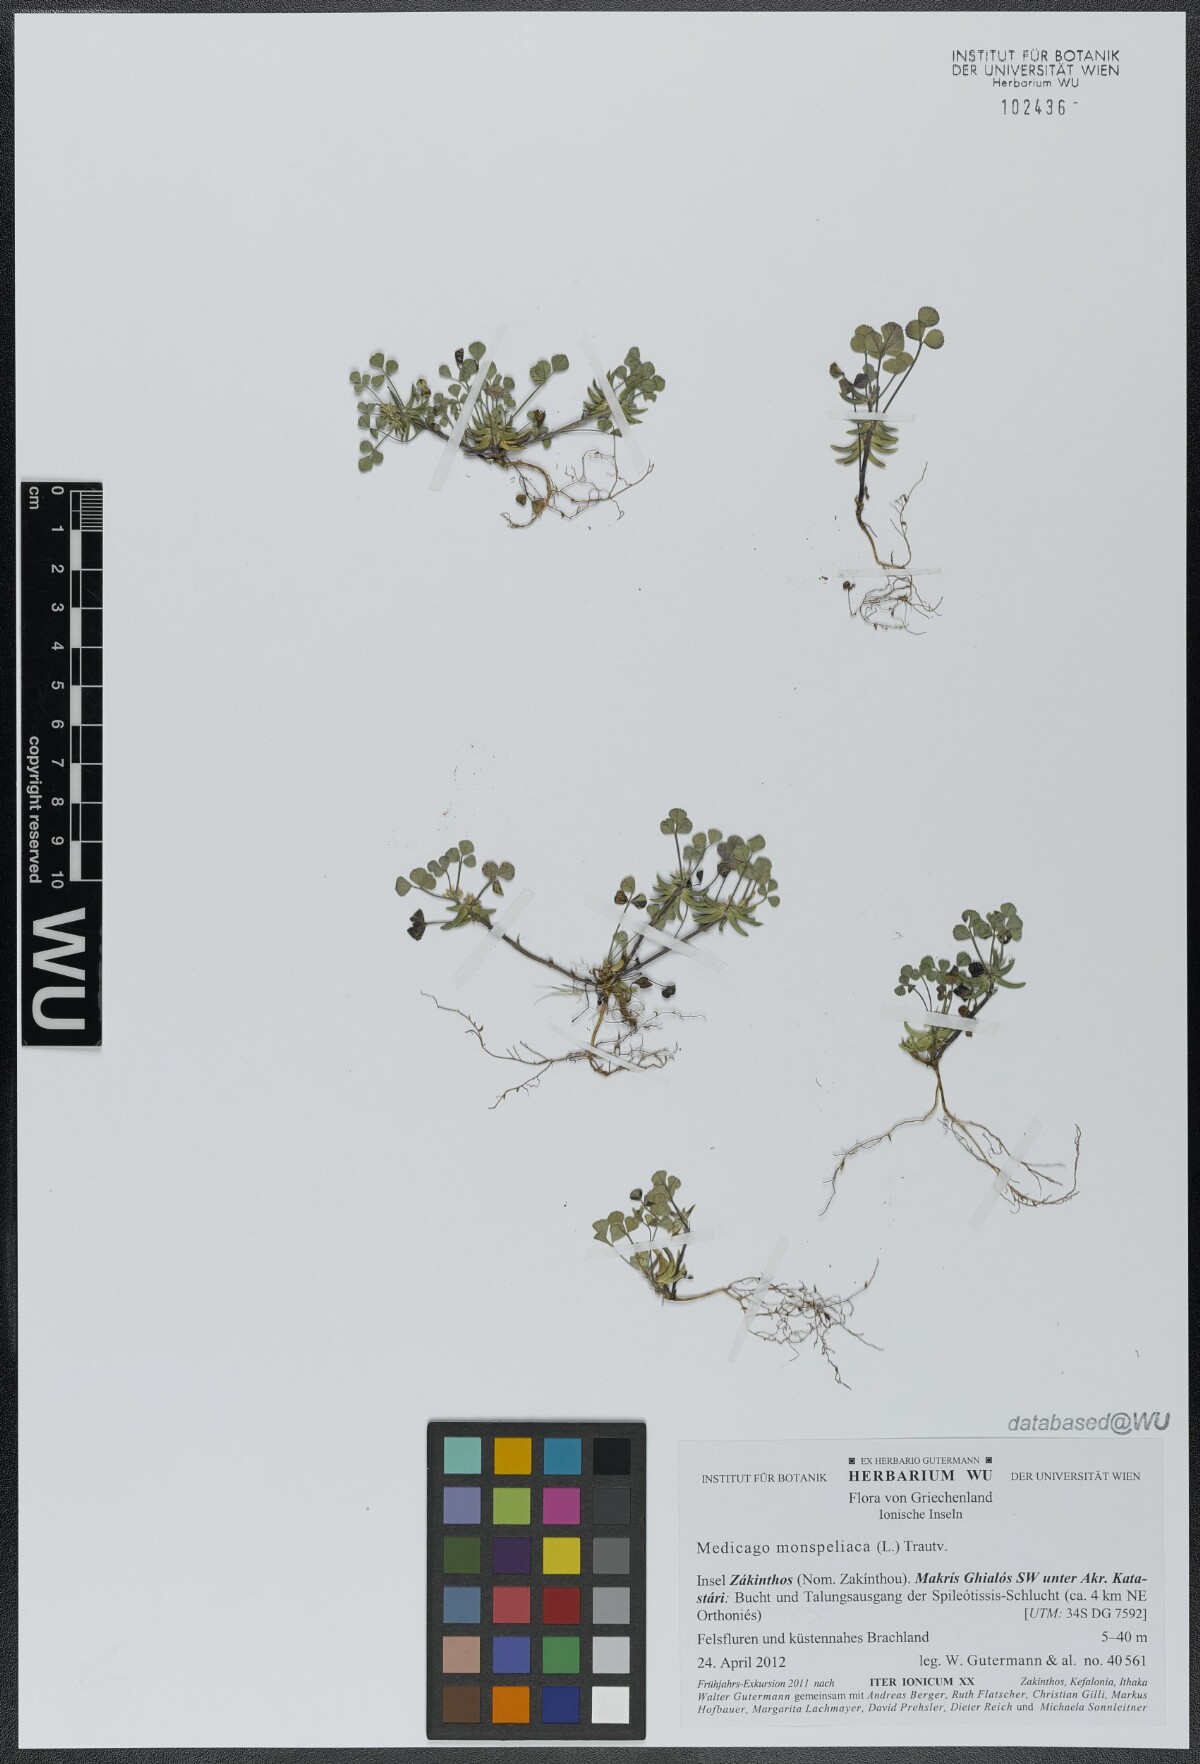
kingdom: Plantae
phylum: Tracheophyta
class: Magnoliopsida
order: Fabales
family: Fabaceae
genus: Medicago
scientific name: Medicago monspeliaca
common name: Hairy medick
